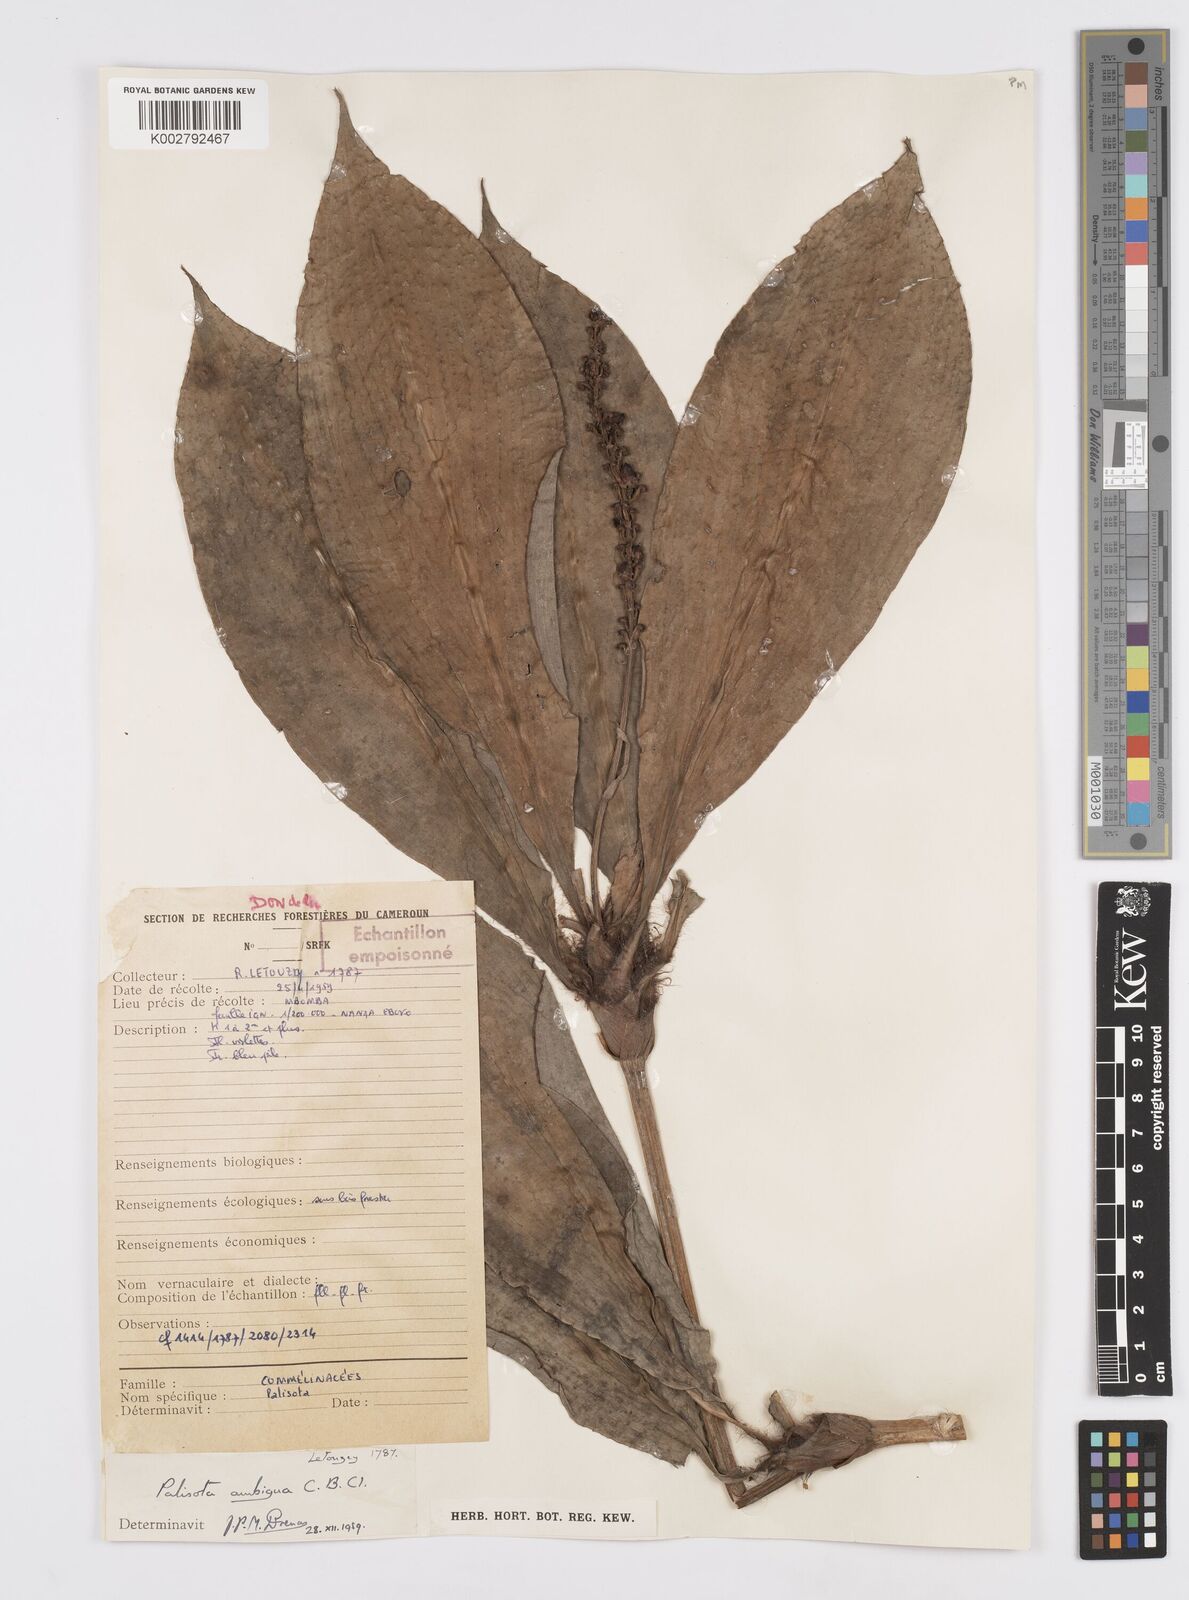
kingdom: Plantae
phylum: Tracheophyta
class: Liliopsida
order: Commelinales
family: Commelinaceae
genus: Palisota
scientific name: Palisota ambigua
